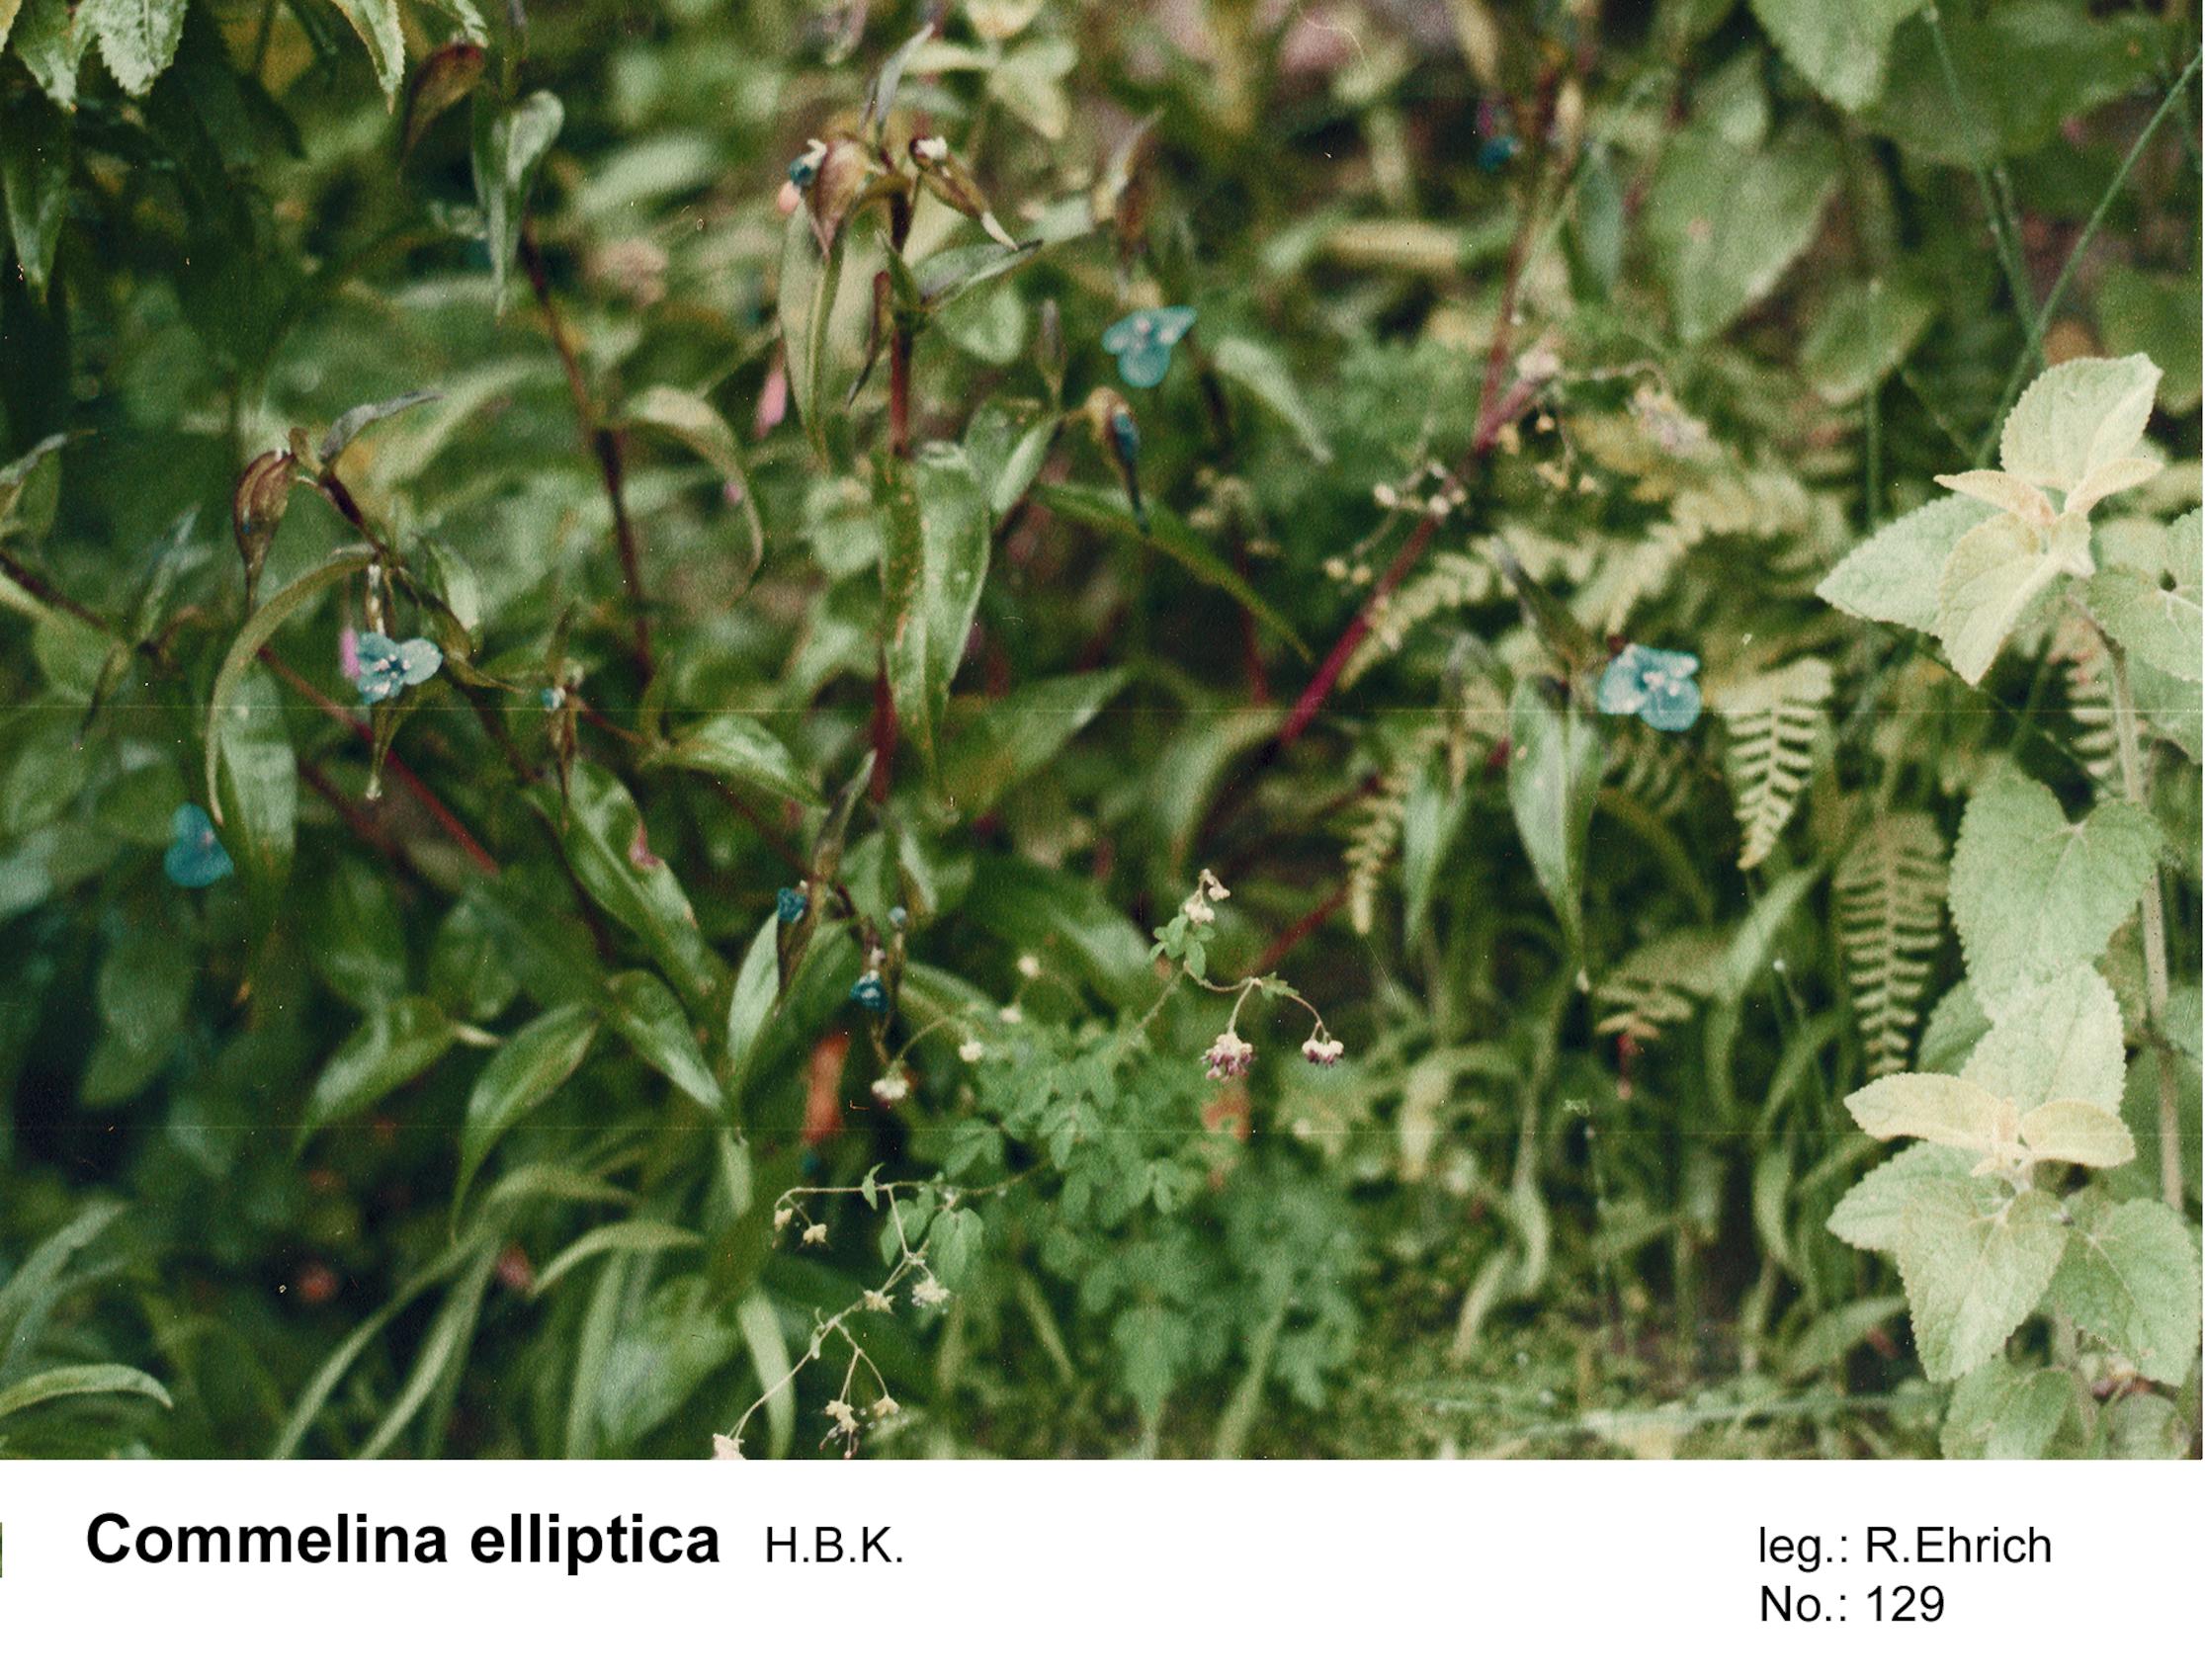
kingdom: Plantae
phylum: Tracheophyta
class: Liliopsida
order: Commelinales
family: Commelinaceae
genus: Commelina
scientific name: Commelina elliptica
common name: Peruvian spiderwort
